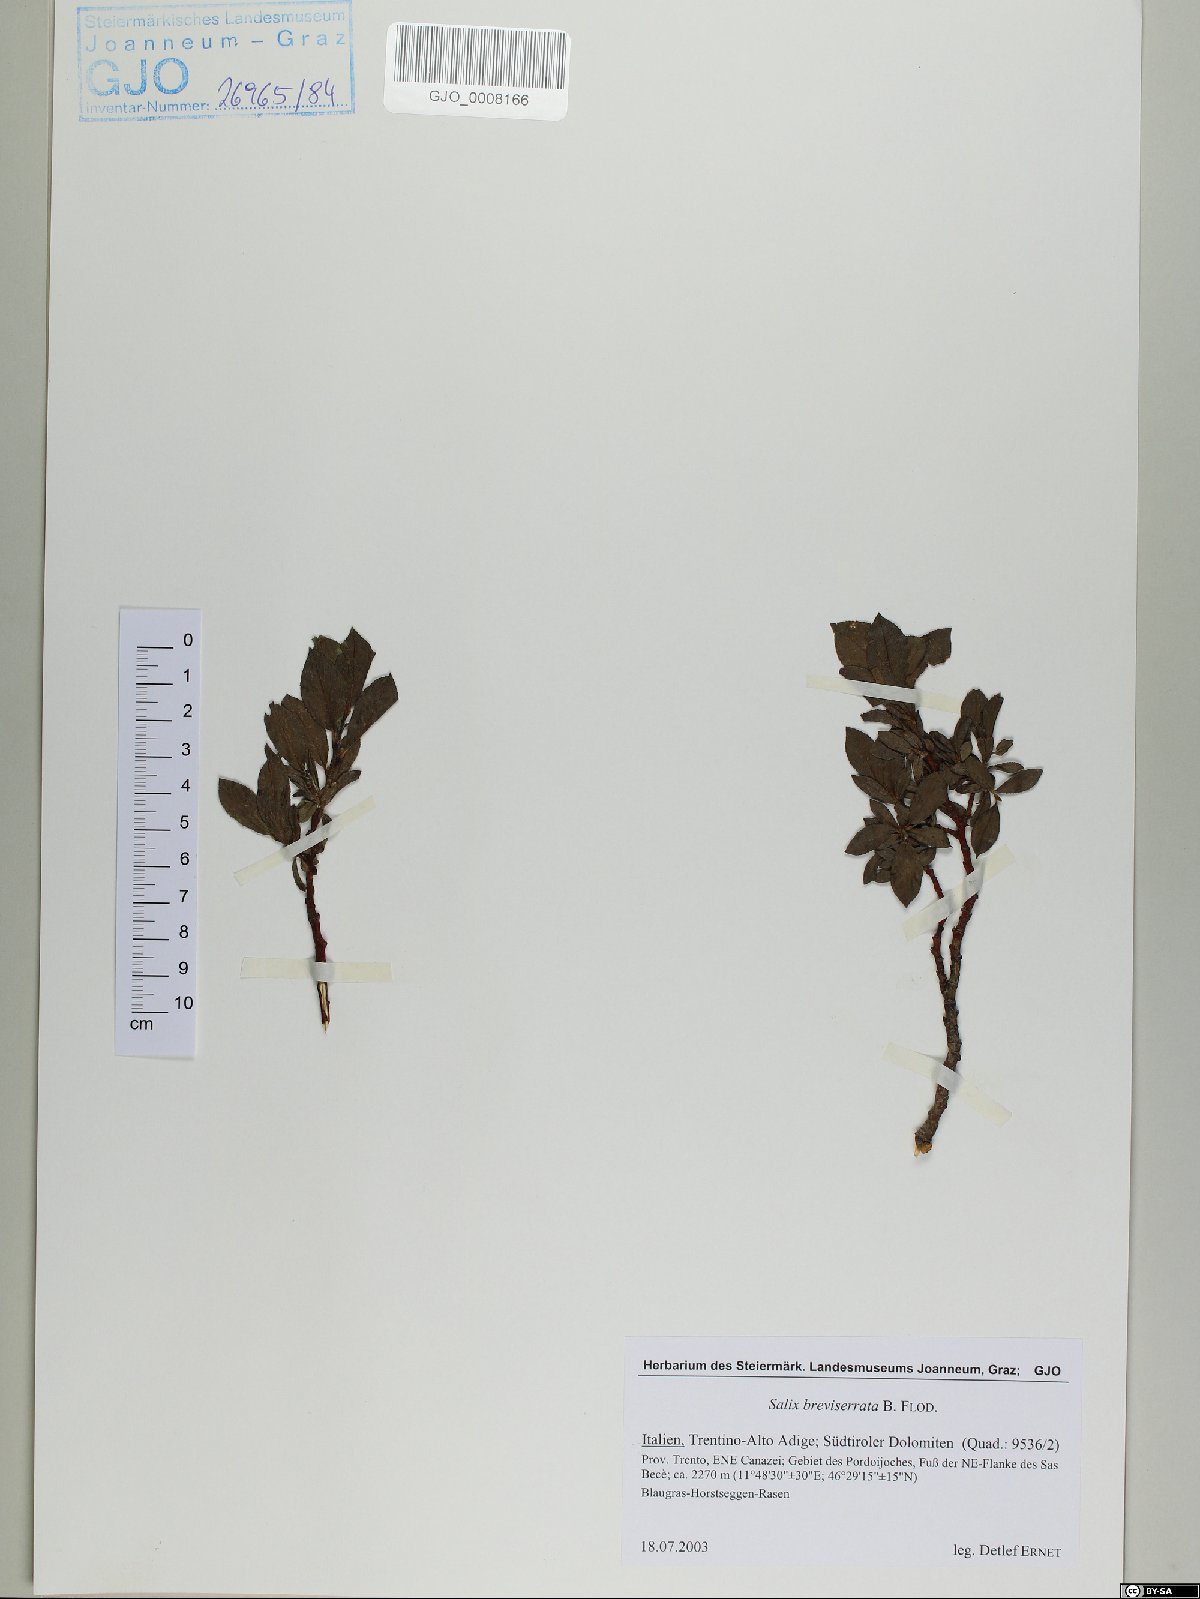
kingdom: Plantae
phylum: Tracheophyta
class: Magnoliopsida
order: Malpighiales
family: Salicaceae
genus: Salix
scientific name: Salix breviserrata
